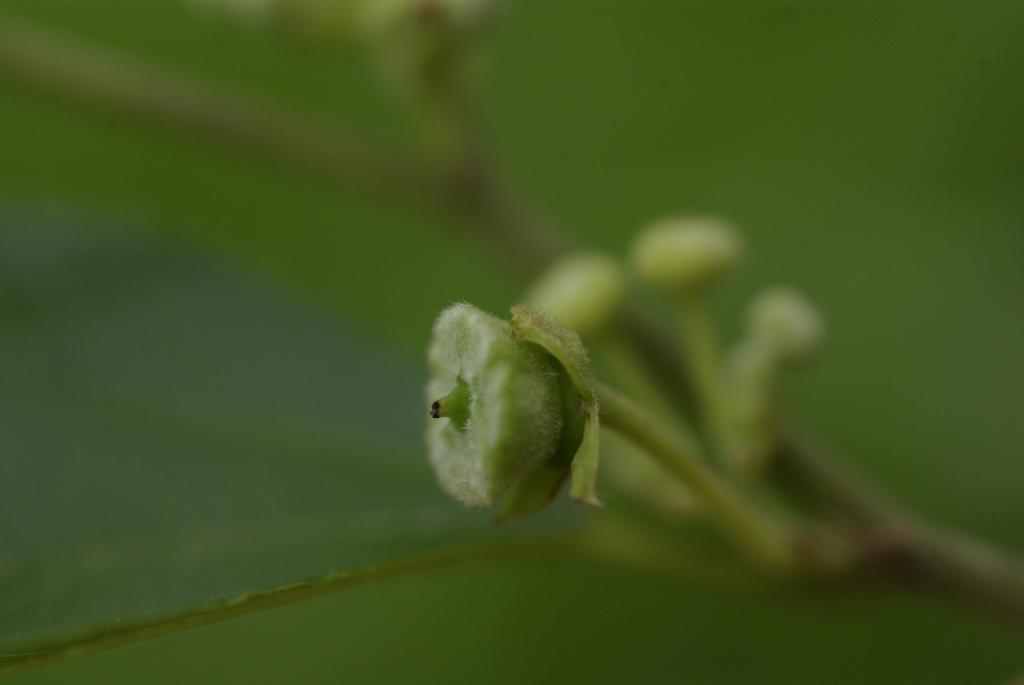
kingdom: Plantae
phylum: Tracheophyta
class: Magnoliopsida
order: Rosales
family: Rhamnaceae
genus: Paliurus
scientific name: Paliurus ramosissimus
